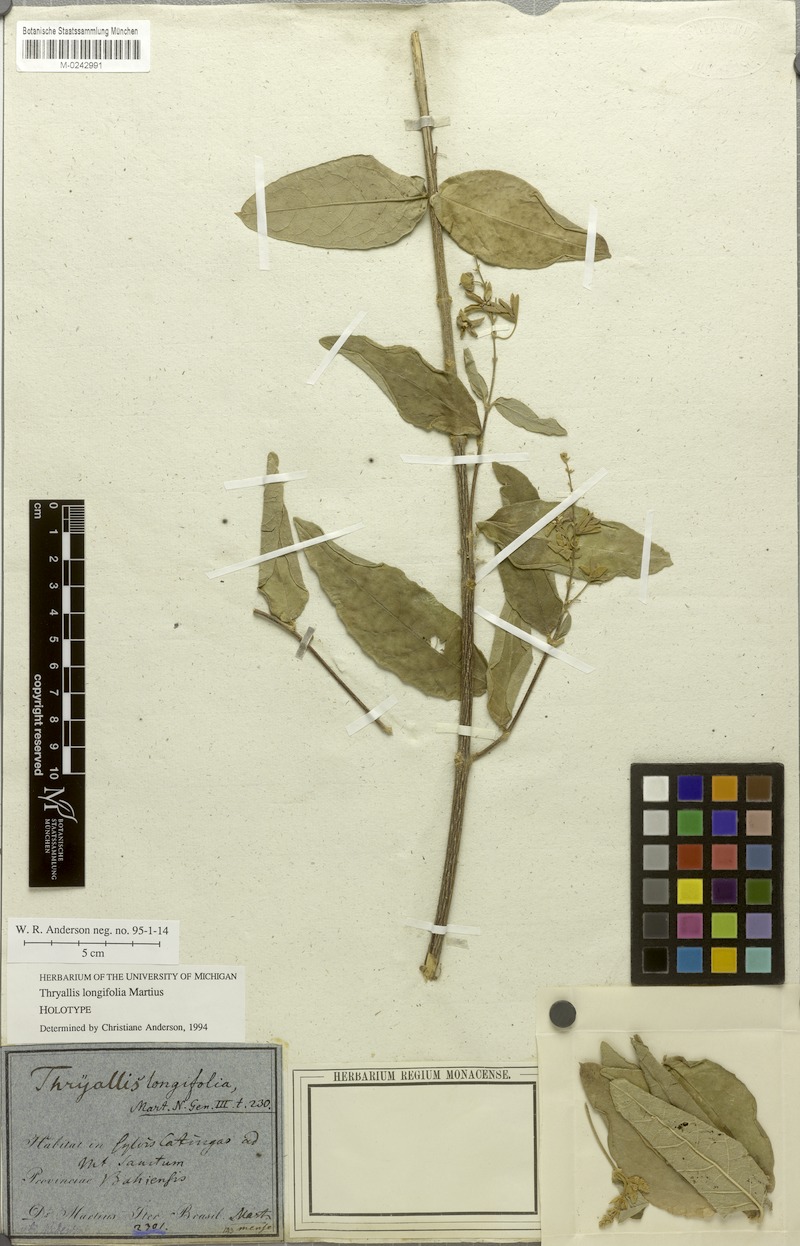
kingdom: Plantae
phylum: Tracheophyta
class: Magnoliopsida
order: Malpighiales
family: Malpighiaceae
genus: Thryallis
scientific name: Thryallis longifolia
